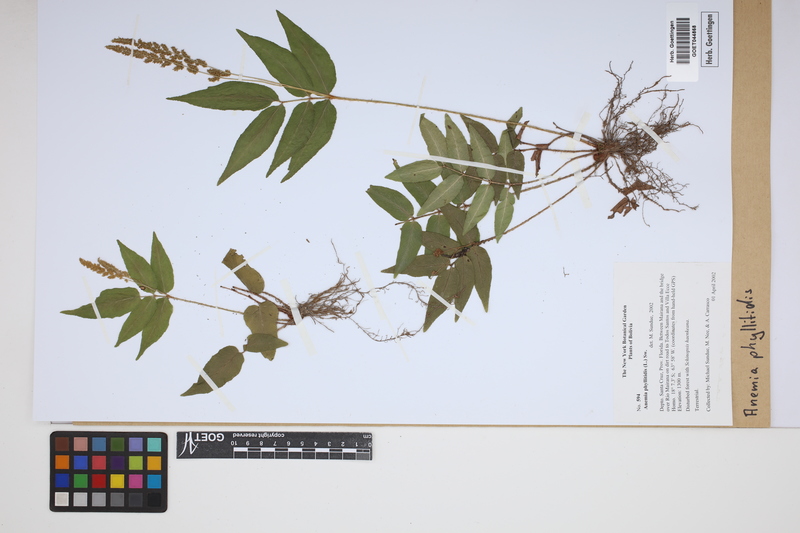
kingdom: Plantae
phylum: Tracheophyta
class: Polypodiopsida
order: Schizaeales
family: Anemiaceae
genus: Anemia
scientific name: Anemia phyllitidis
